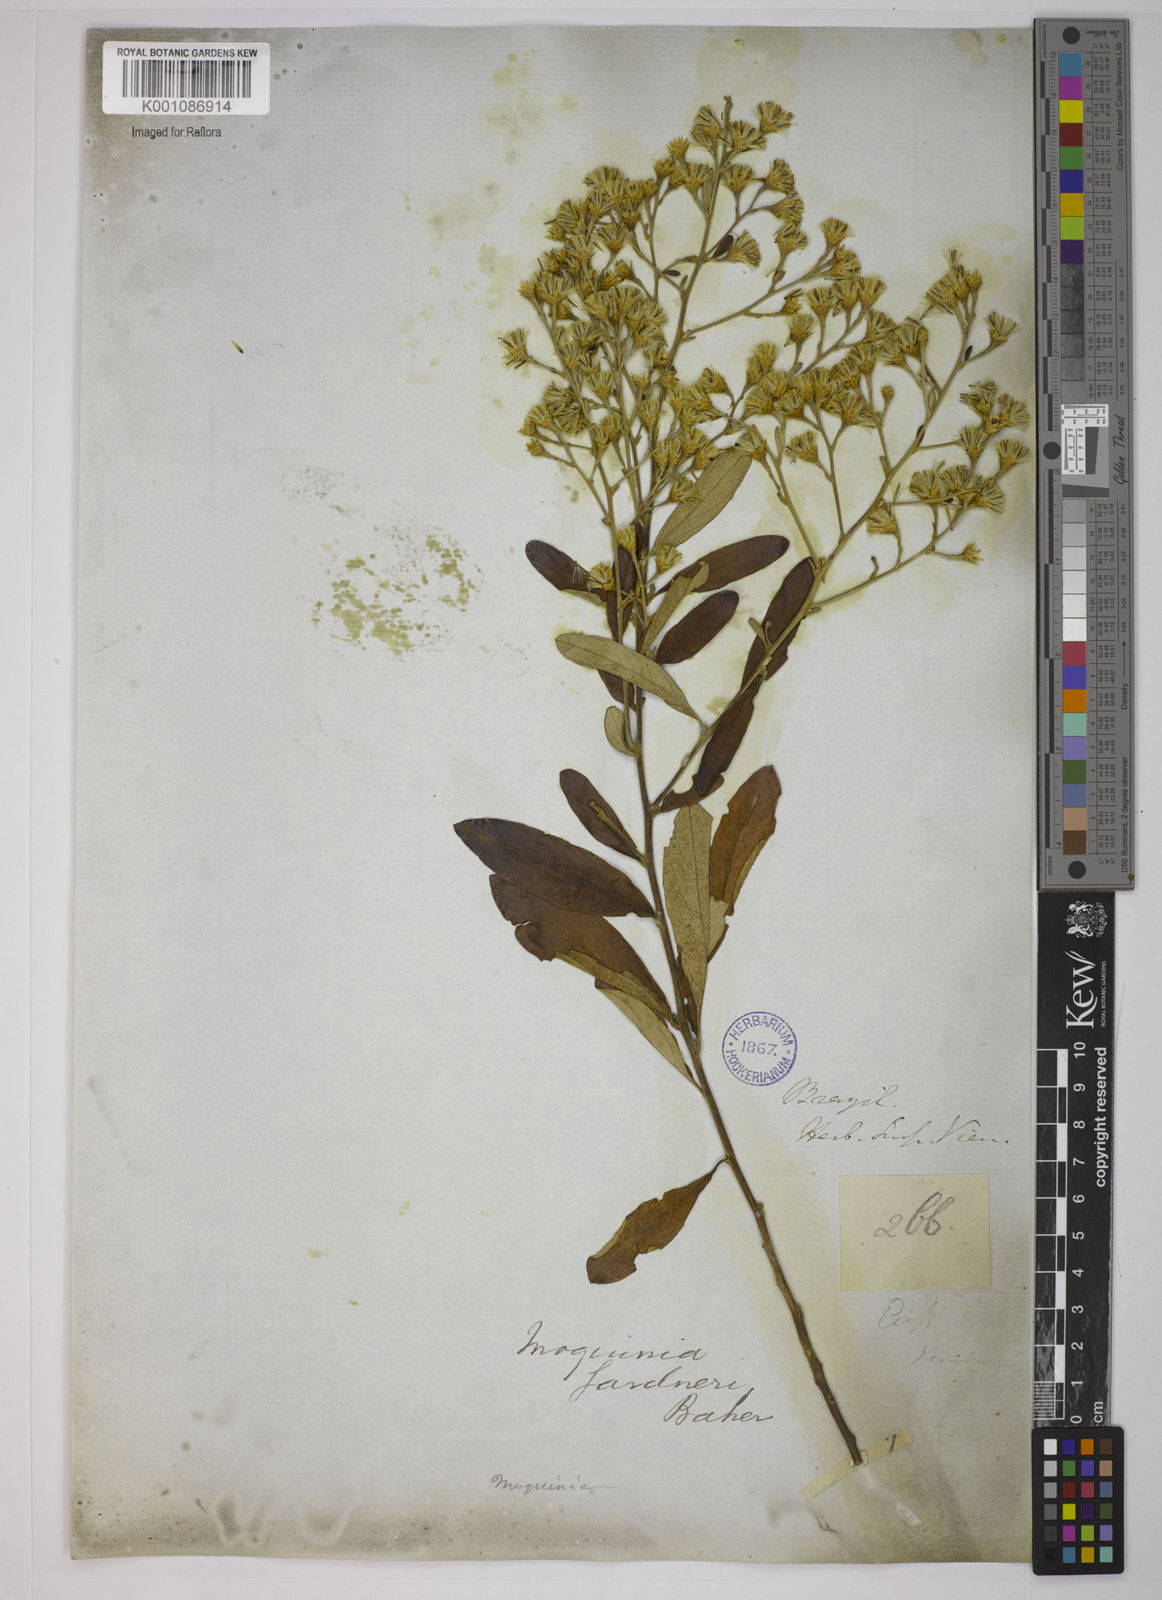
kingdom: Plantae
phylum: Tracheophyta
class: Magnoliopsida
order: Asterales
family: Asteraceae
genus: Moquiniastrum
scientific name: Moquiniastrum gardneri
